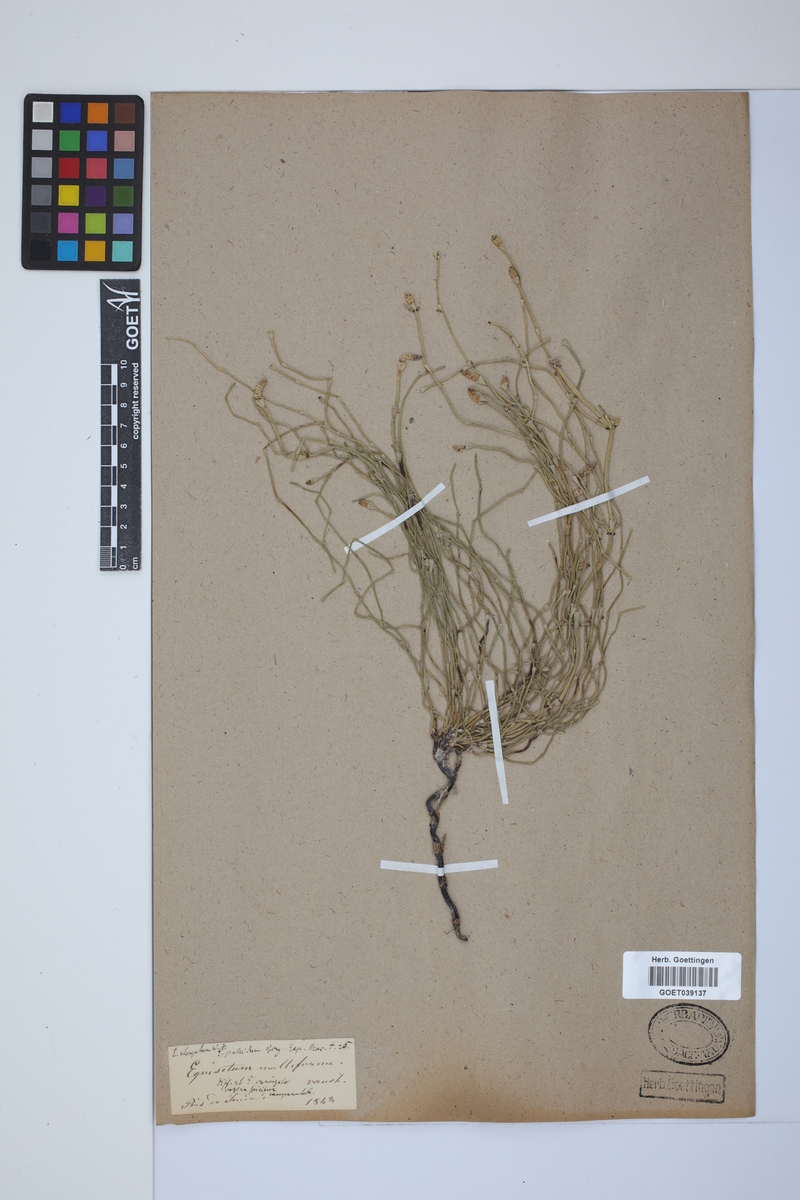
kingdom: Plantae
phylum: Tracheophyta
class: Polypodiopsida
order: Equisetales
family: Equisetaceae
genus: Equisetum
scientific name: Equisetum giganteum
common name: Giant horsetail
